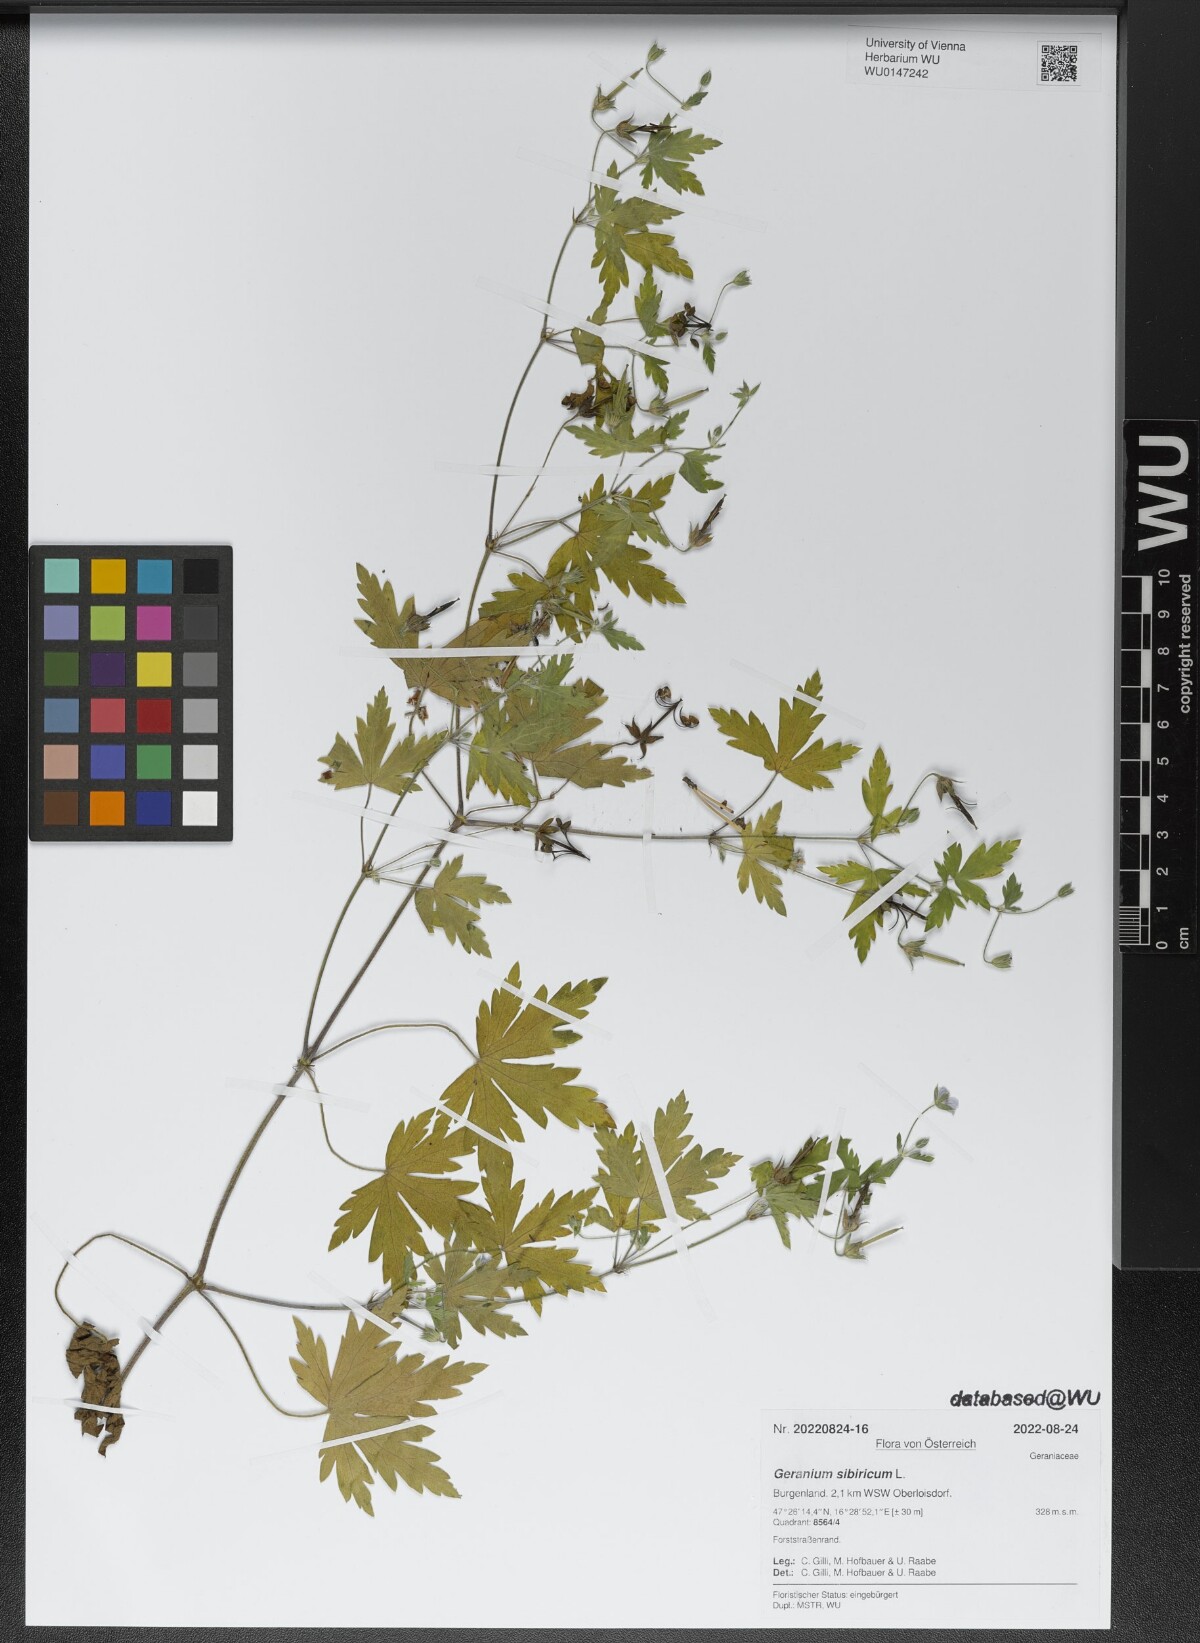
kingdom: Plantae
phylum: Tracheophyta
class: Magnoliopsida
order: Geraniales
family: Geraniaceae
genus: Geranium
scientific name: Geranium sibiricum
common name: Siberian crane's-bill
